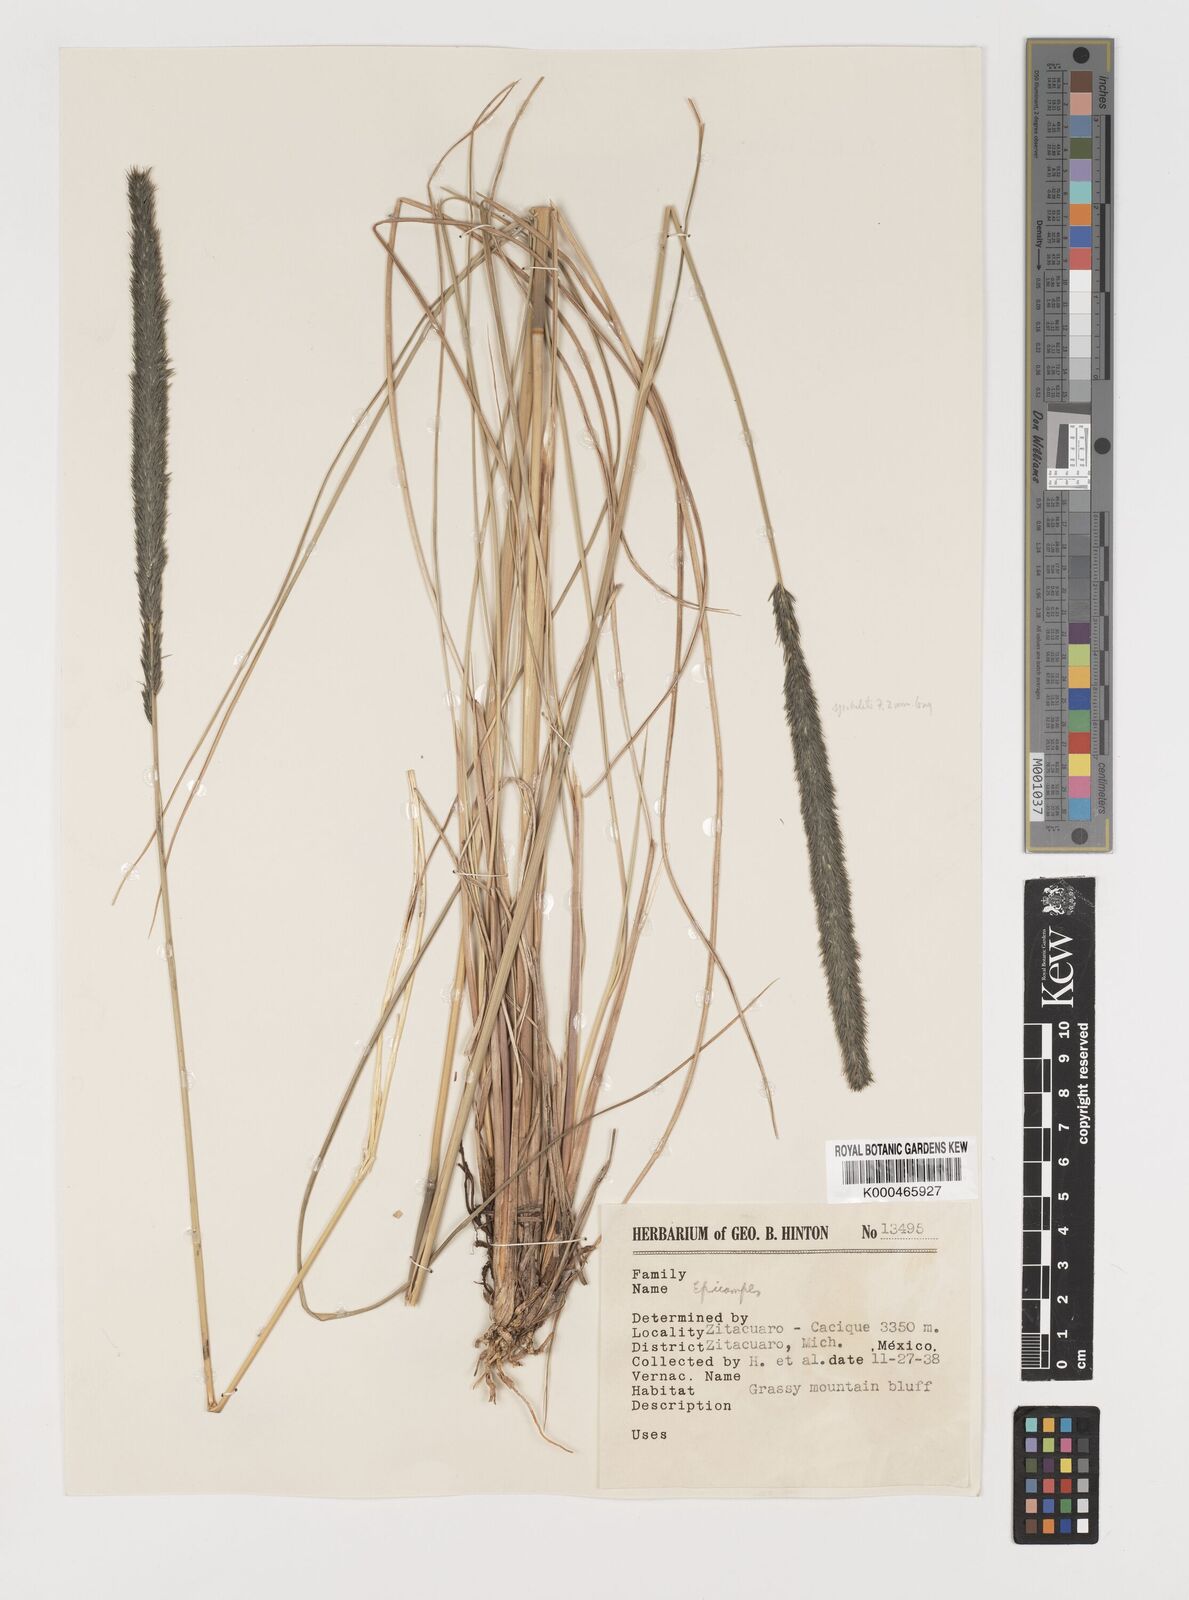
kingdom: Plantae
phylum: Tracheophyta
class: Liliopsida
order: Poales
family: Poaceae
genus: Muhlenbergia
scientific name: Muhlenbergia nigra
